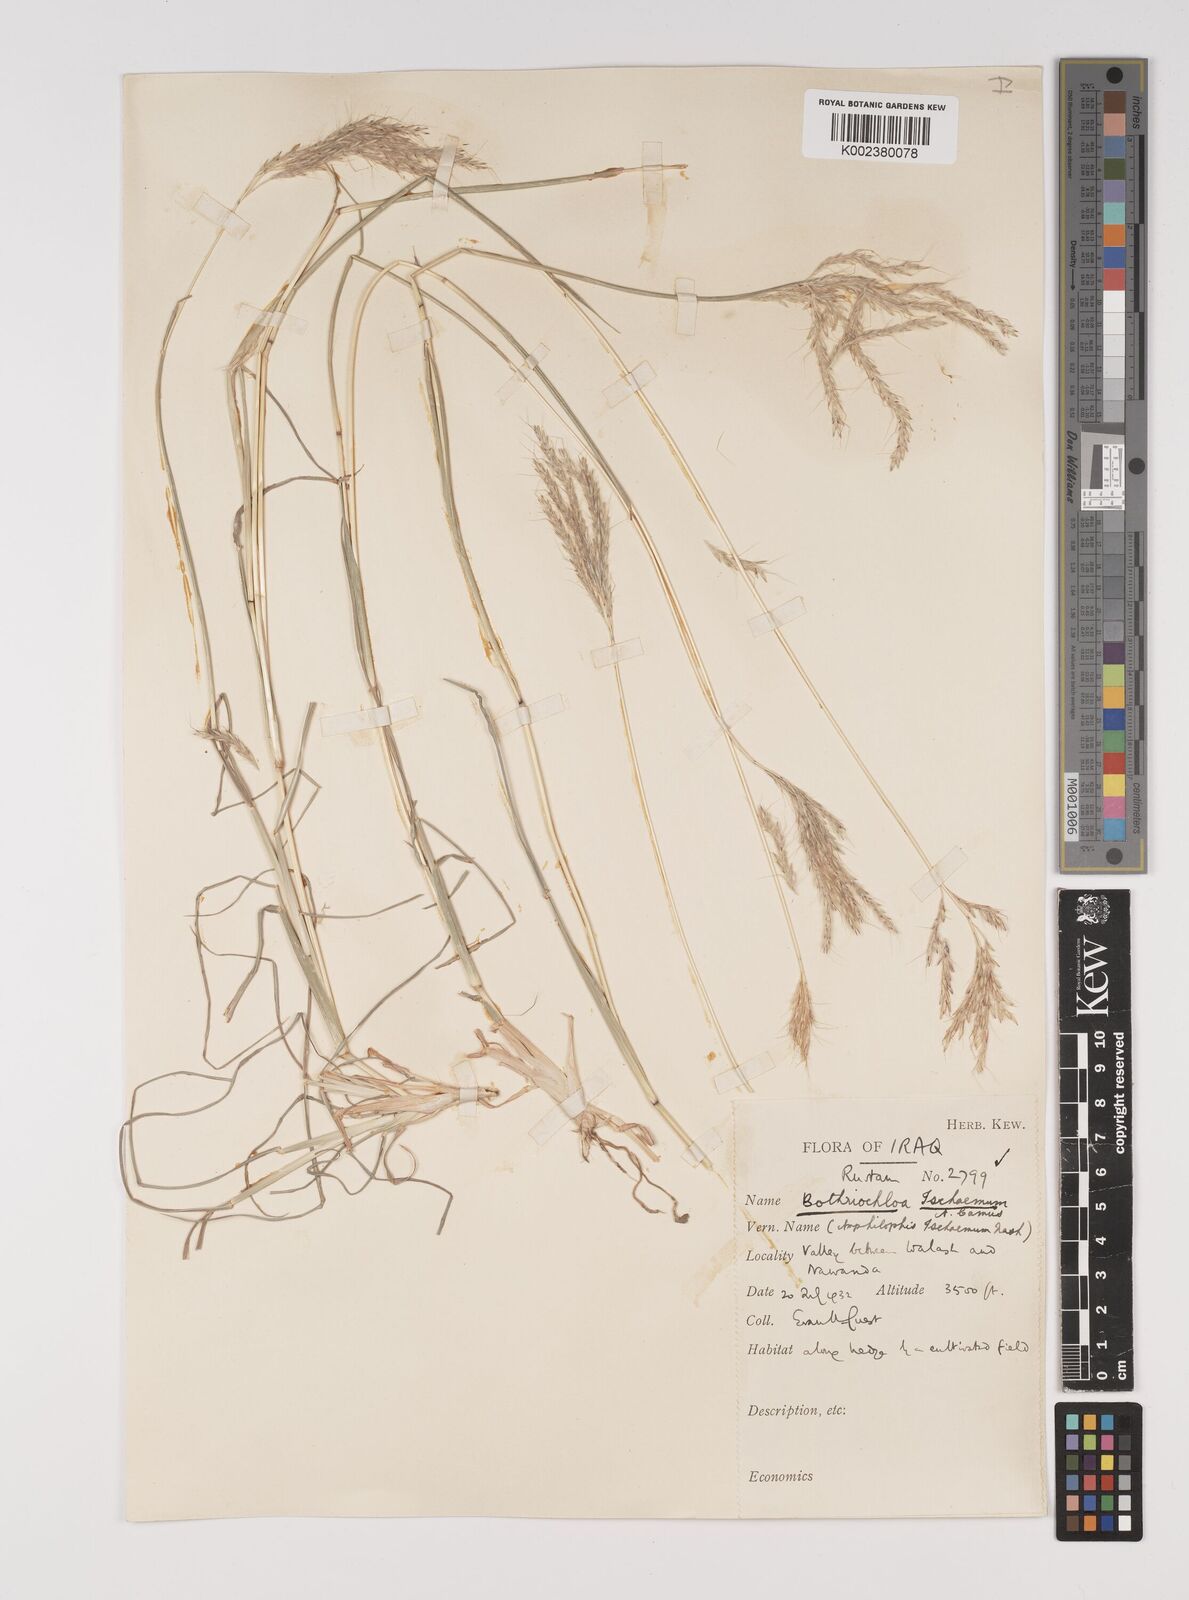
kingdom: Plantae
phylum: Tracheophyta
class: Liliopsida
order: Poales
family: Poaceae
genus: Bothriochloa
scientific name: Bothriochloa ischaemum
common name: Yellow bluestem
